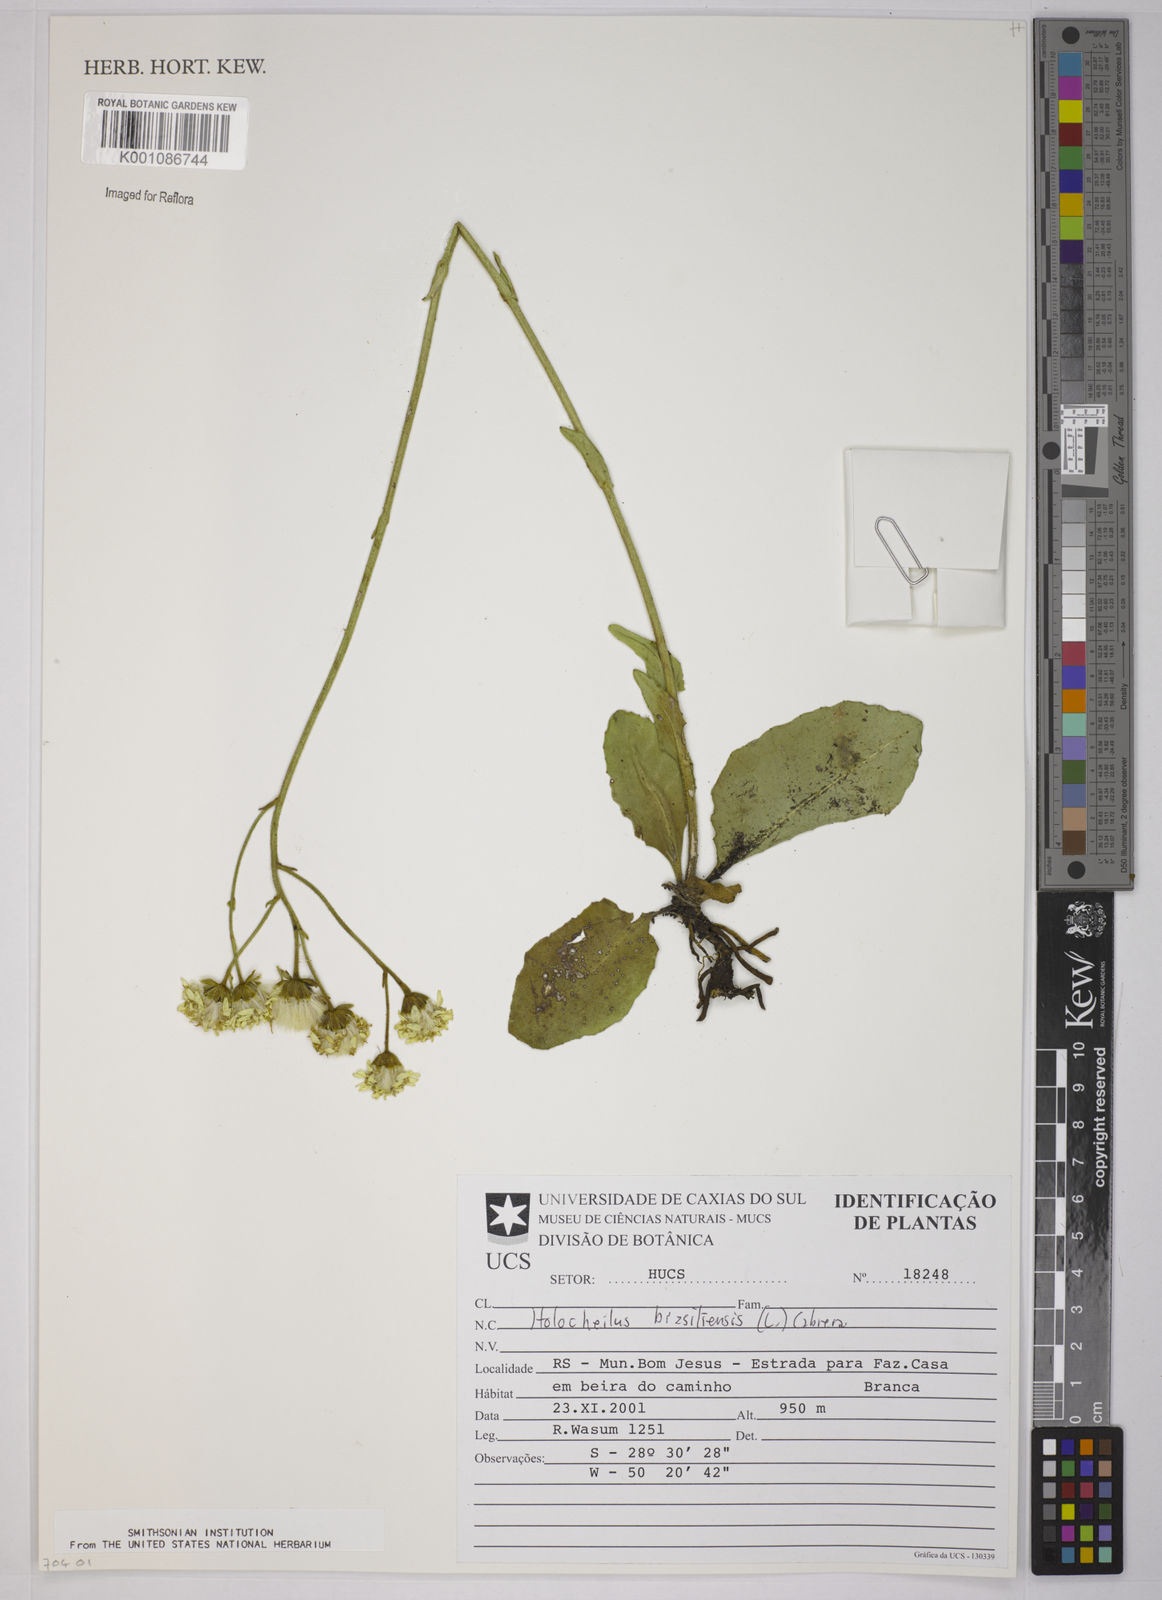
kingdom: Plantae
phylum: Tracheophyta
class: Magnoliopsida
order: Asterales
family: Asteraceae
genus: Holocheilus
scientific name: Holocheilus brasiliensis
